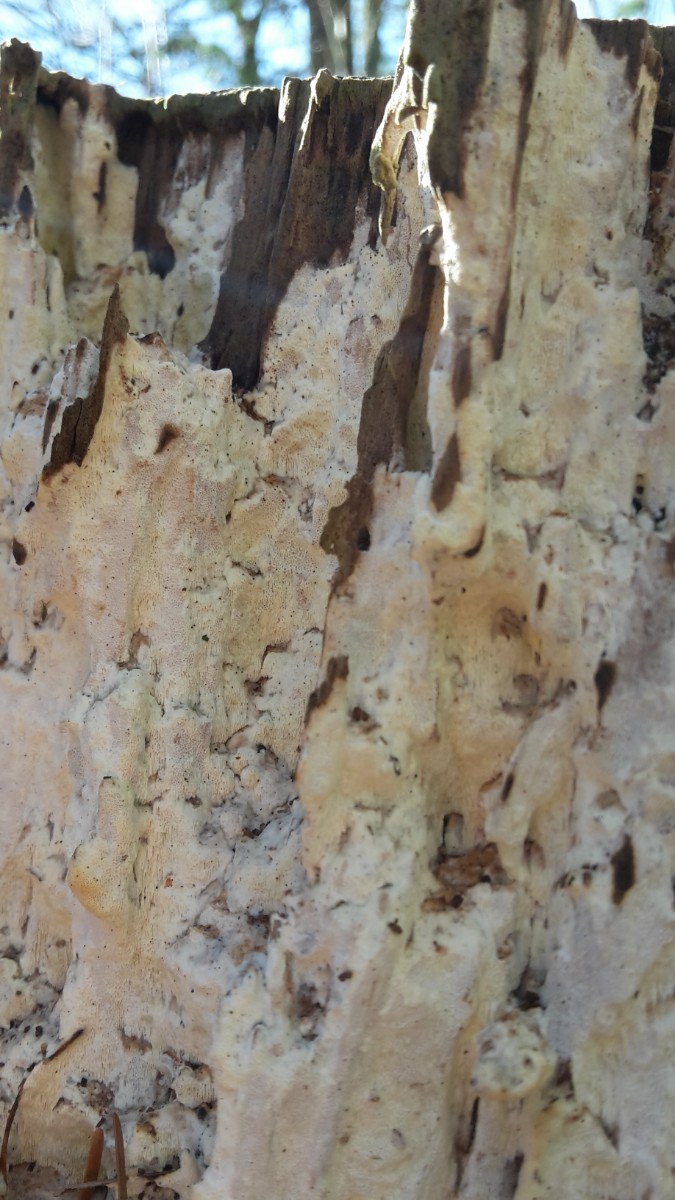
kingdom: Fungi
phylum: Basidiomycota
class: Agaricomycetes
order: Polyporales
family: Fomitopsidaceae
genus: Daedalea
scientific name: Daedalea xantha
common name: gul sejporesvamp
